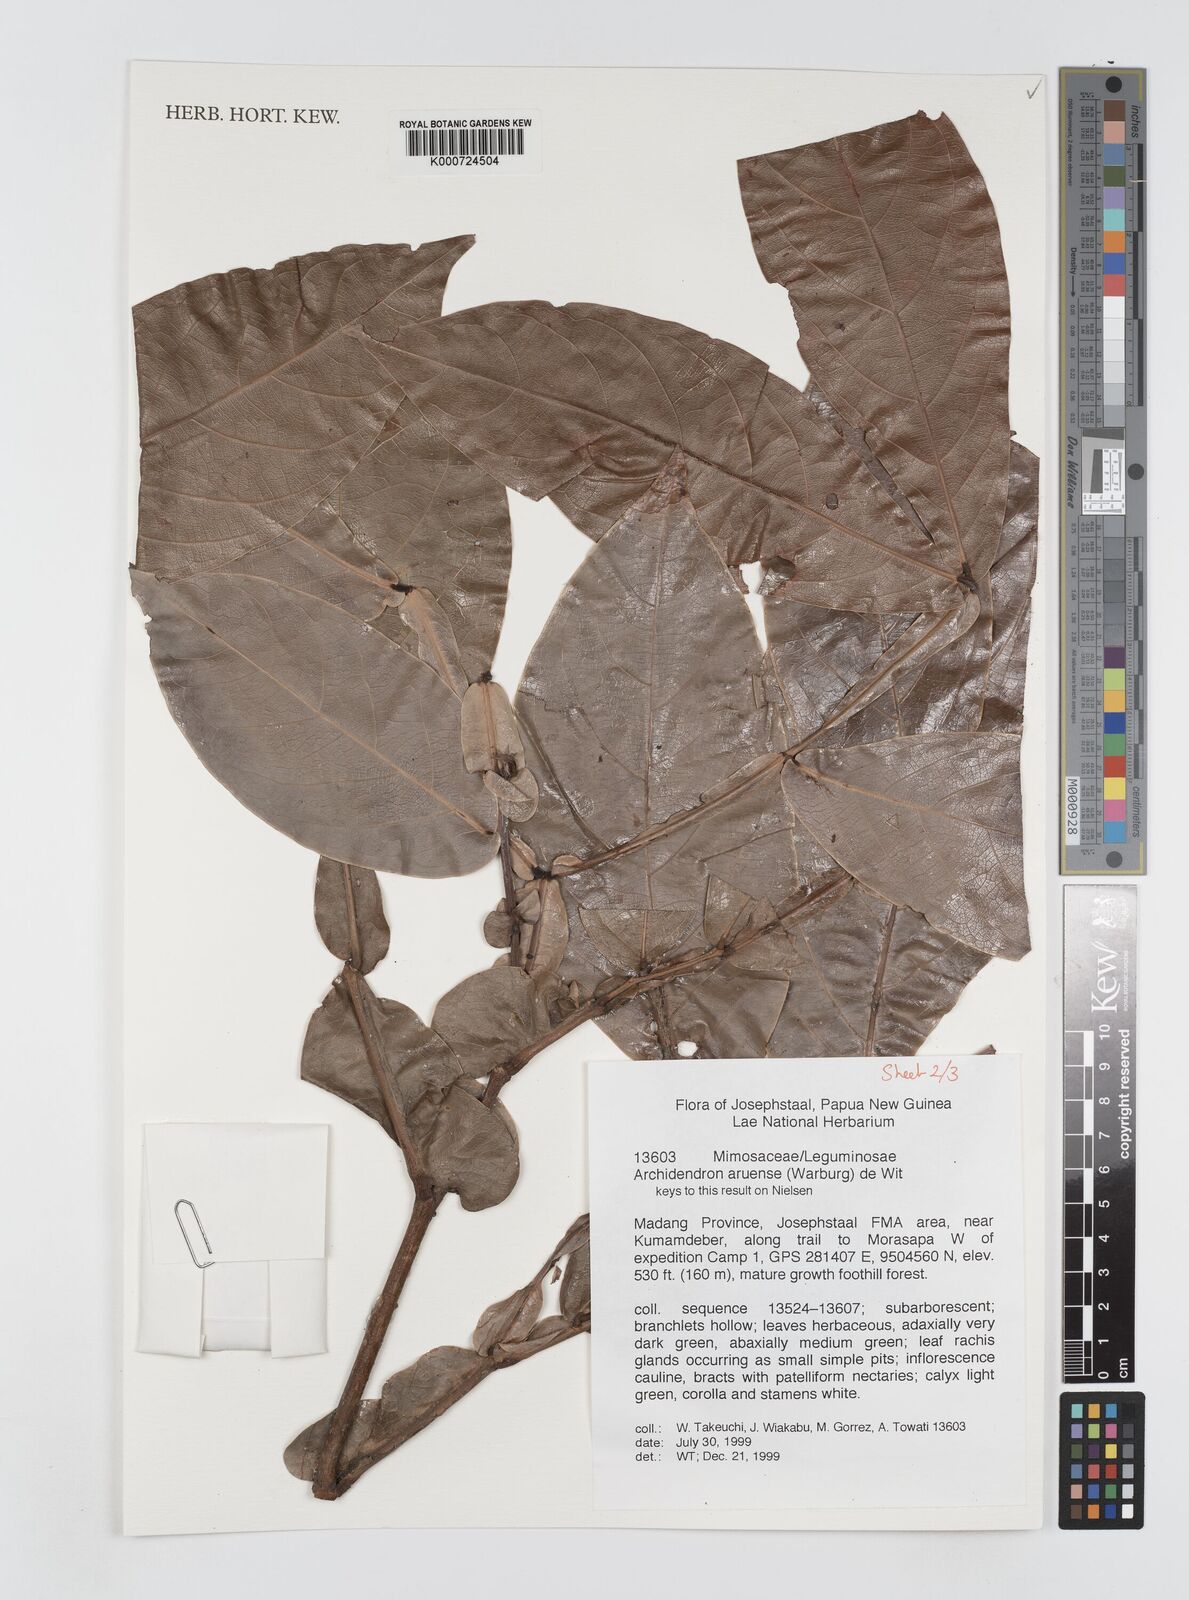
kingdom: Plantae
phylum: Tracheophyta
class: Magnoliopsida
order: Fabales
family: Fabaceae
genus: Archidendron
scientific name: Archidendron aruense
